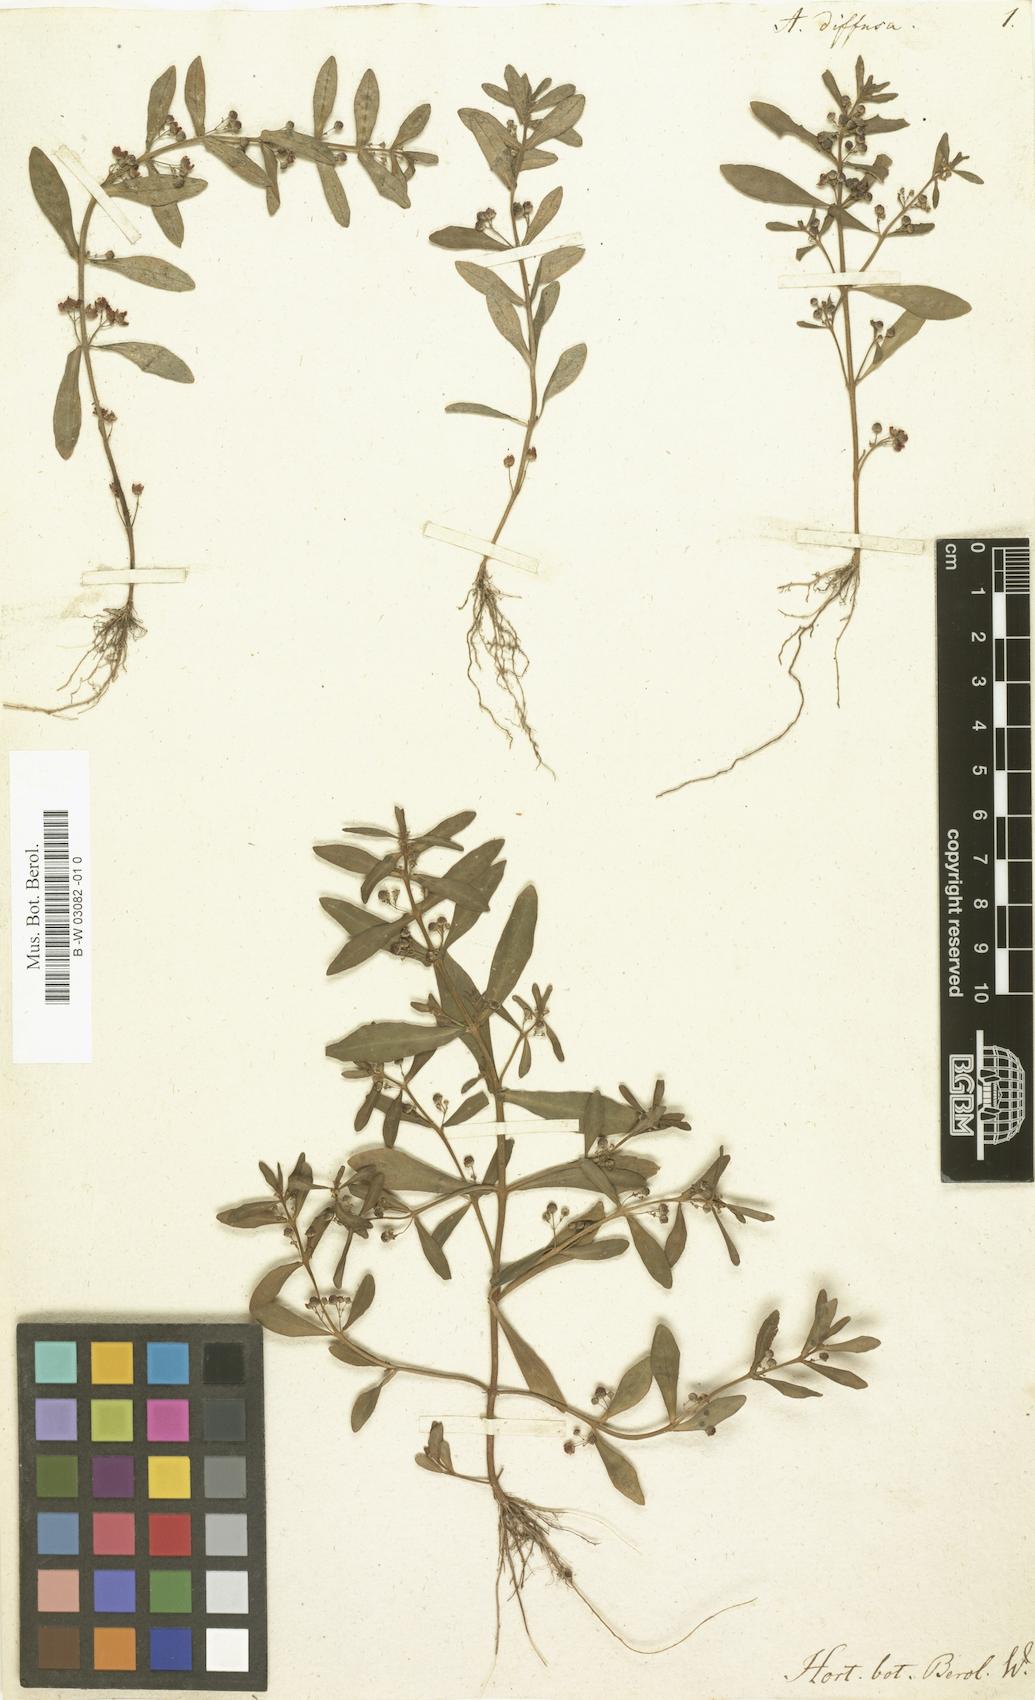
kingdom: Plantae
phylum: Tracheophyta
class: Magnoliopsida
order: Myrtales
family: Lythraceae
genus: Ammannia
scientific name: Ammannia senegalensis
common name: Red ammannia
